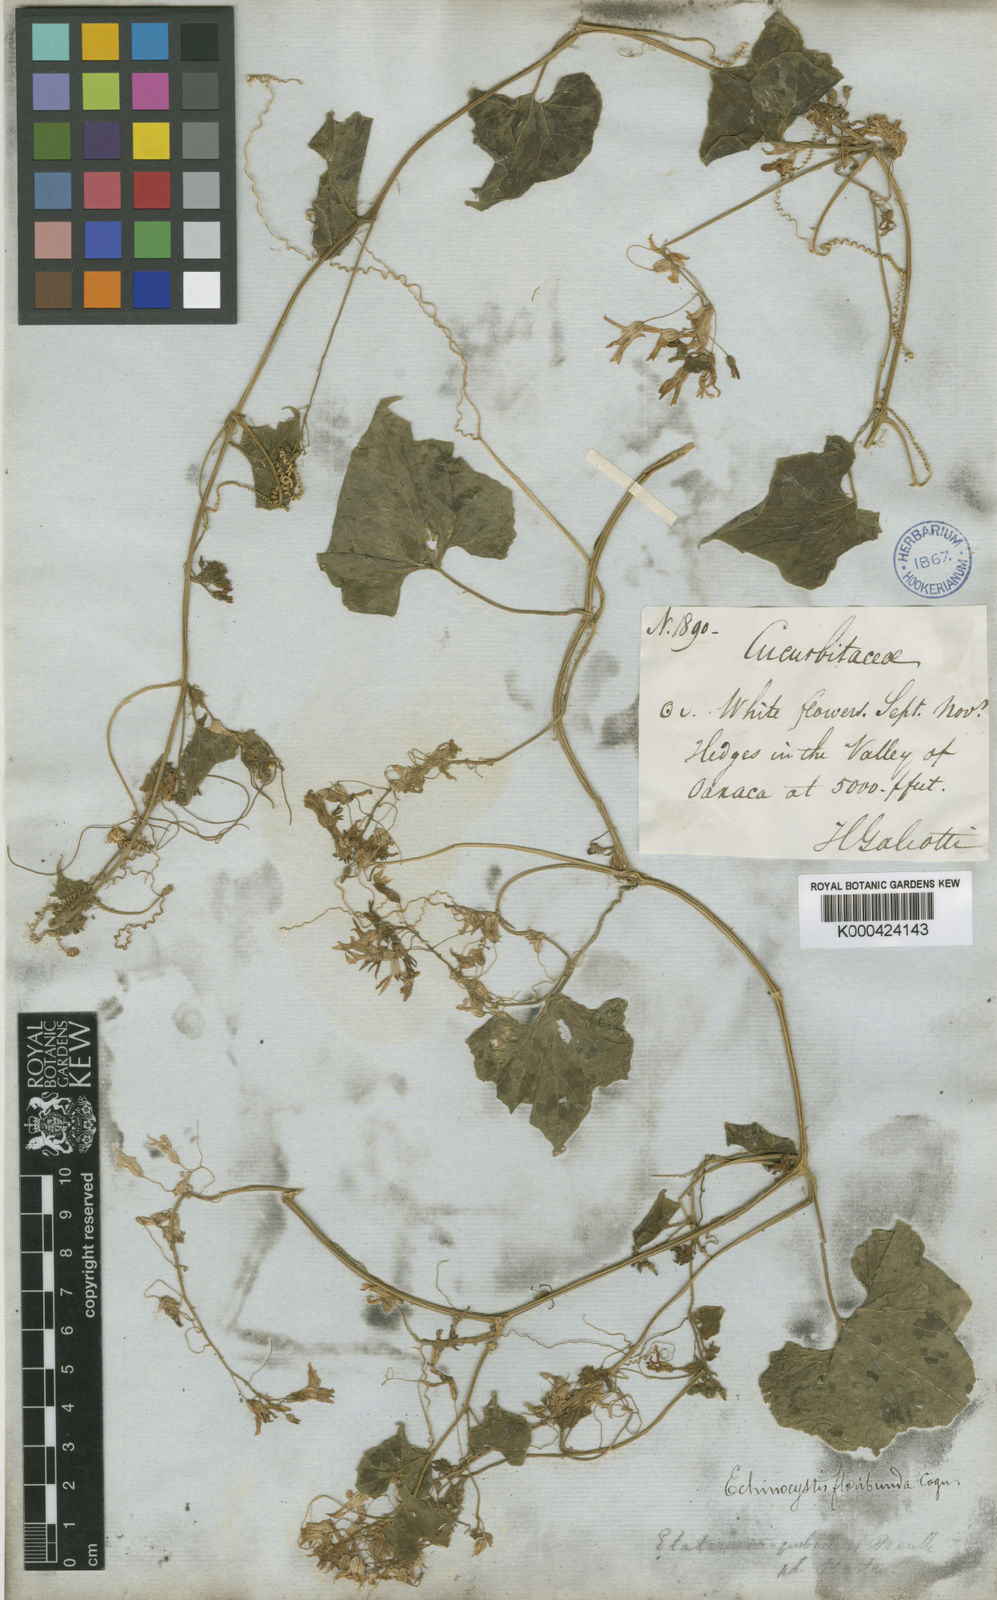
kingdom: Plantae
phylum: Tracheophyta
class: Magnoliopsida
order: Cucurbitales
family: Cucurbitaceae
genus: Echinopepon
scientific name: Echinopepon pubescens
